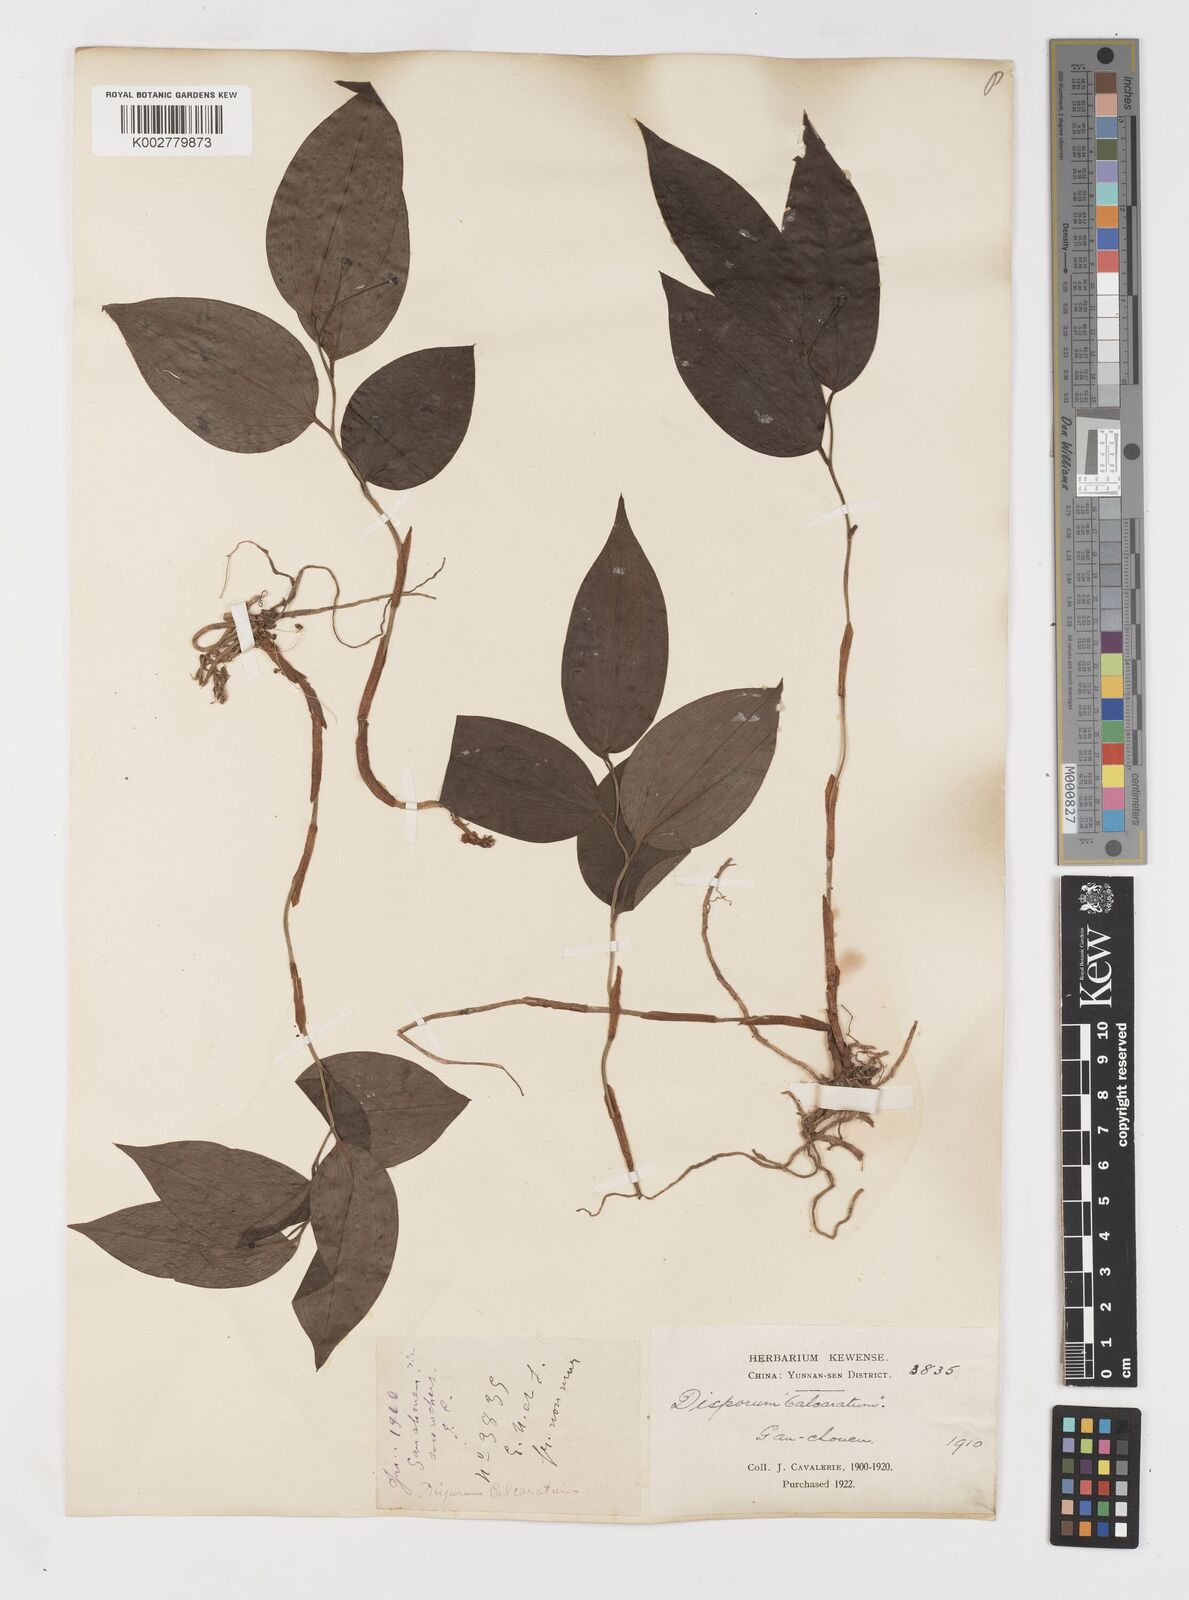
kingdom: Plantae
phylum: Tracheophyta
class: Liliopsida
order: Liliales
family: Colchicaceae
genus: Disporum
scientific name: Disporum
